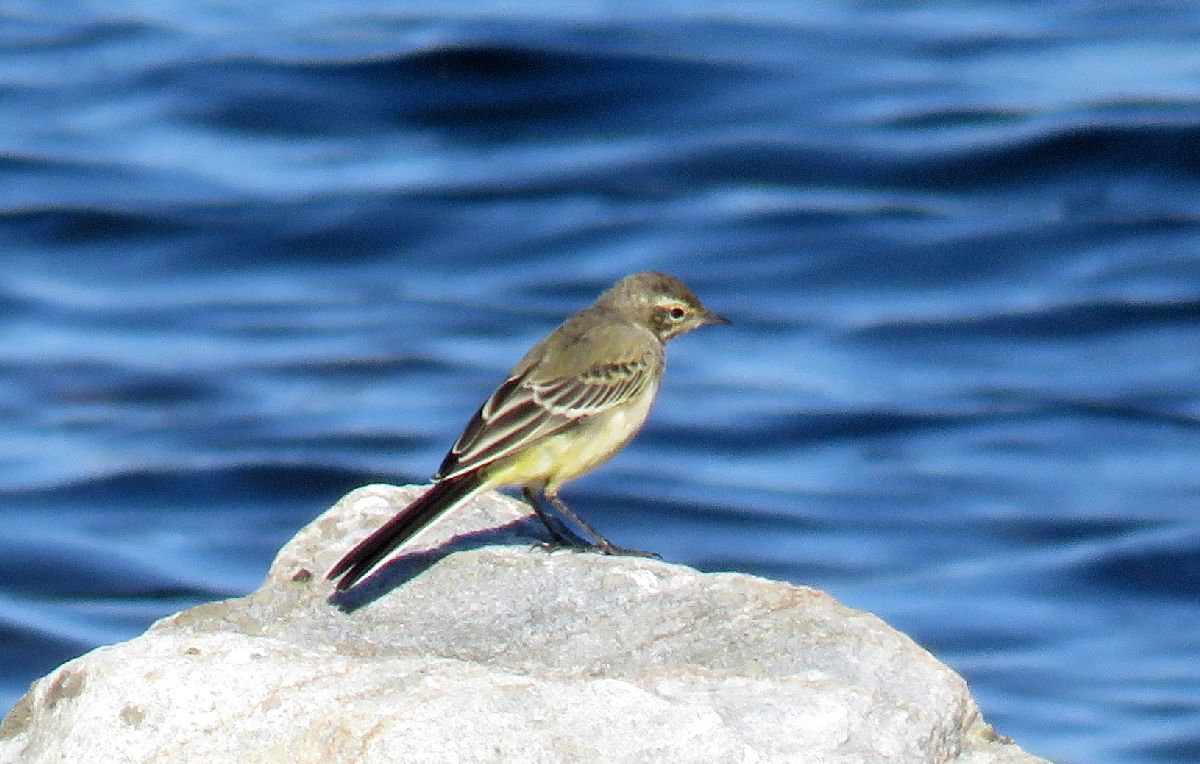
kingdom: Animalia
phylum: Chordata
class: Aves
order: Passeriformes
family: Motacillidae
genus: Motacilla
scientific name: Motacilla flava
